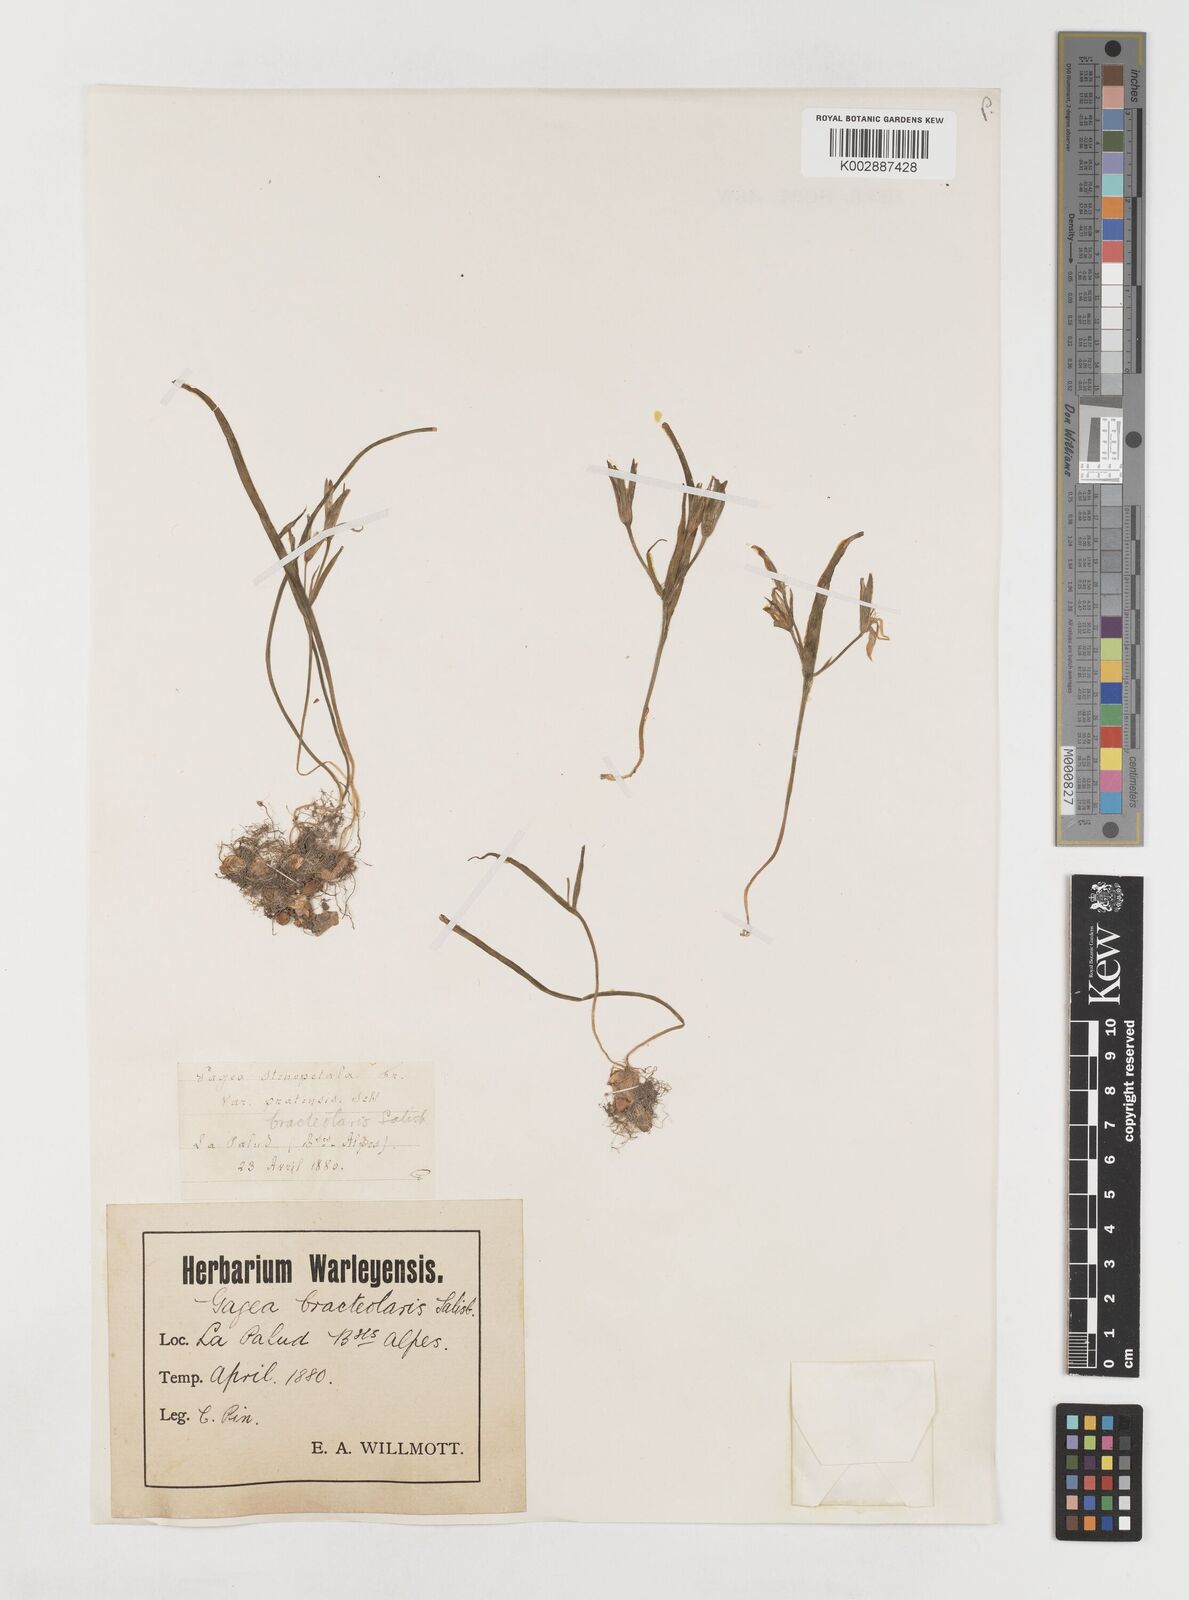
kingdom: Plantae
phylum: Tracheophyta
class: Liliopsida
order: Liliales
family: Liliaceae
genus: Gagea
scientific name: Gagea pratensis
